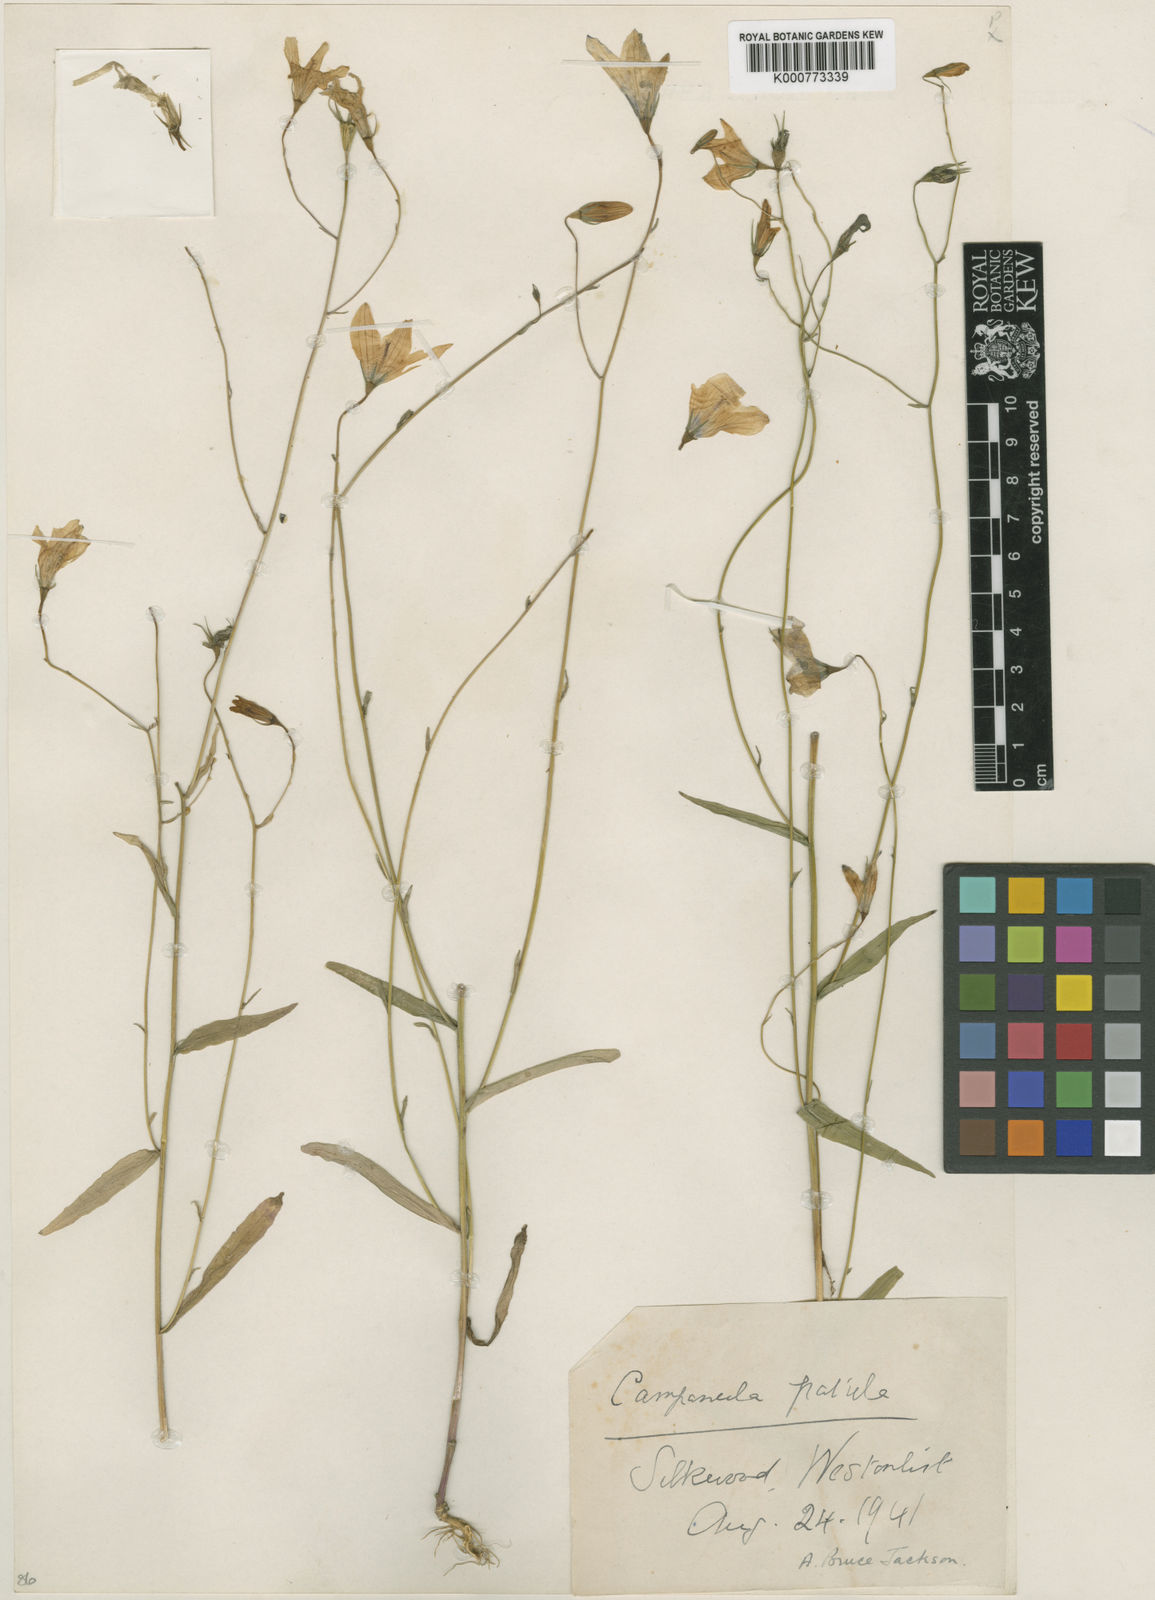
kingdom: Plantae
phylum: Tracheophyta
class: Magnoliopsida
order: Asterales
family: Campanulaceae
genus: Campanula
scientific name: Campanula patula
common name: Spreading bellflower
